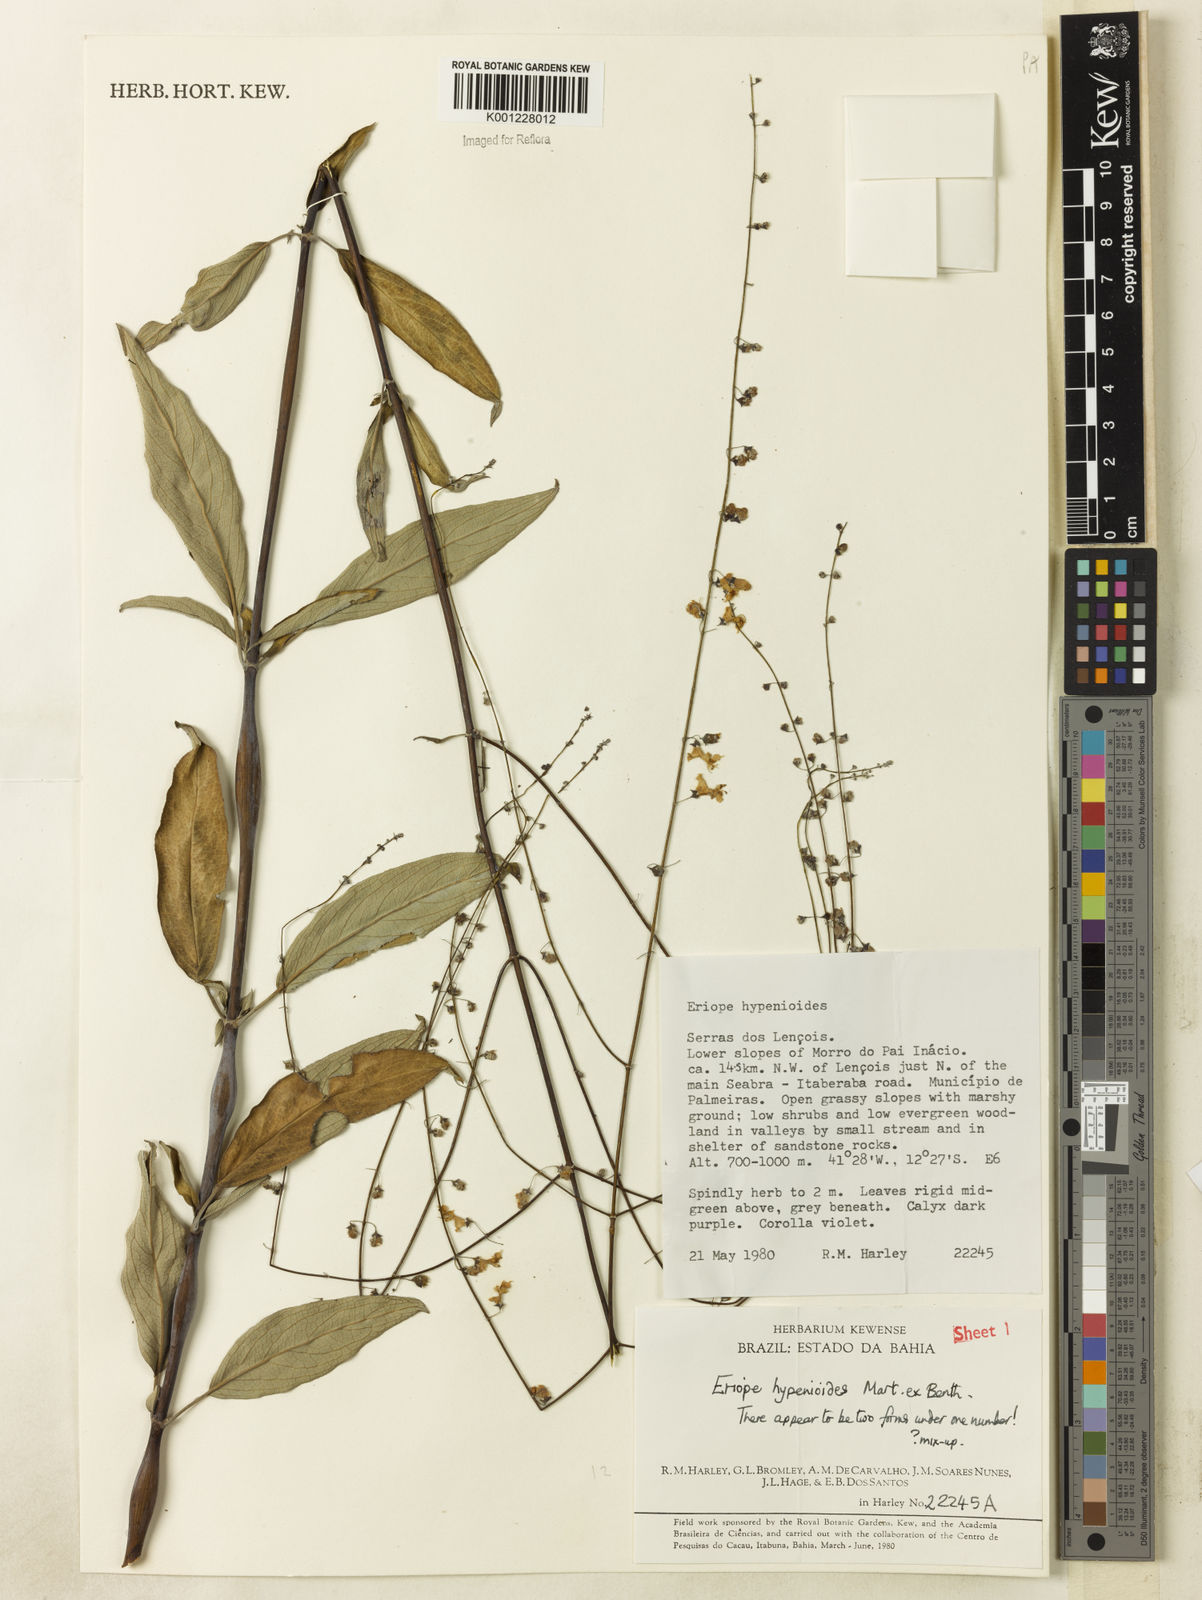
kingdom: Plantae
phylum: Tracheophyta
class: Magnoliopsida
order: Lamiales
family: Lamiaceae
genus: Eriope
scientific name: Eriope hypenioides
